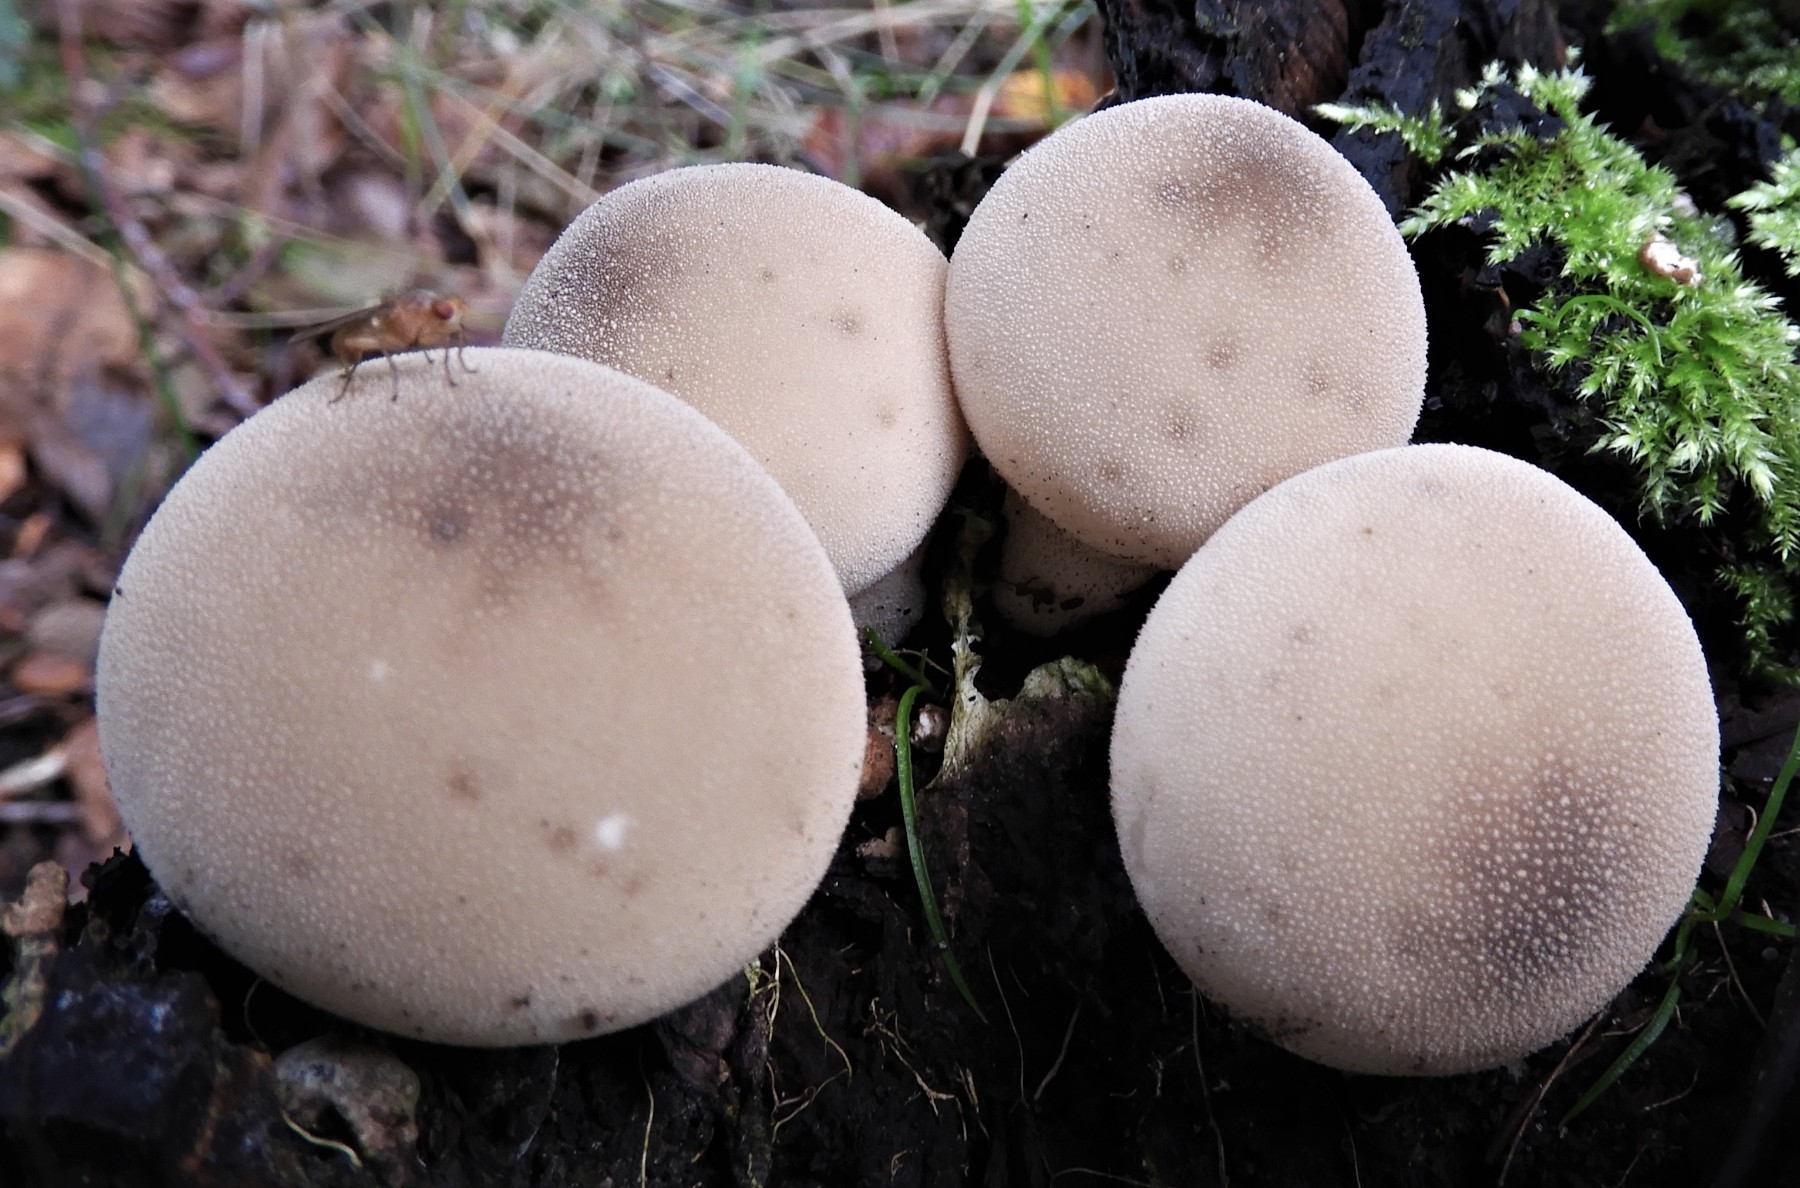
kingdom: Fungi
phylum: Basidiomycota
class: Agaricomycetes
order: Agaricales
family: Lycoperdaceae
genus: Apioperdon
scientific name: Apioperdon pyriforme
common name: pære-støvbold
